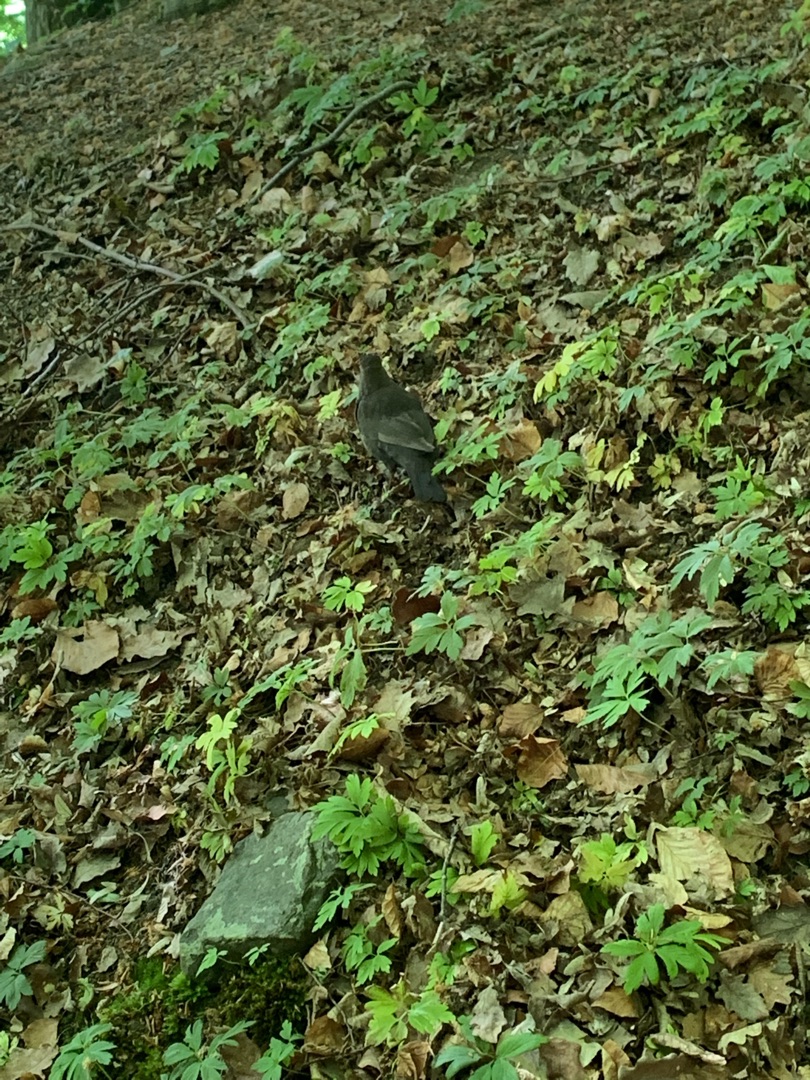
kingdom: Animalia
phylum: Chordata
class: Aves
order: Passeriformes
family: Turdidae
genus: Turdus
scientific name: Turdus merula
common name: Solsort
